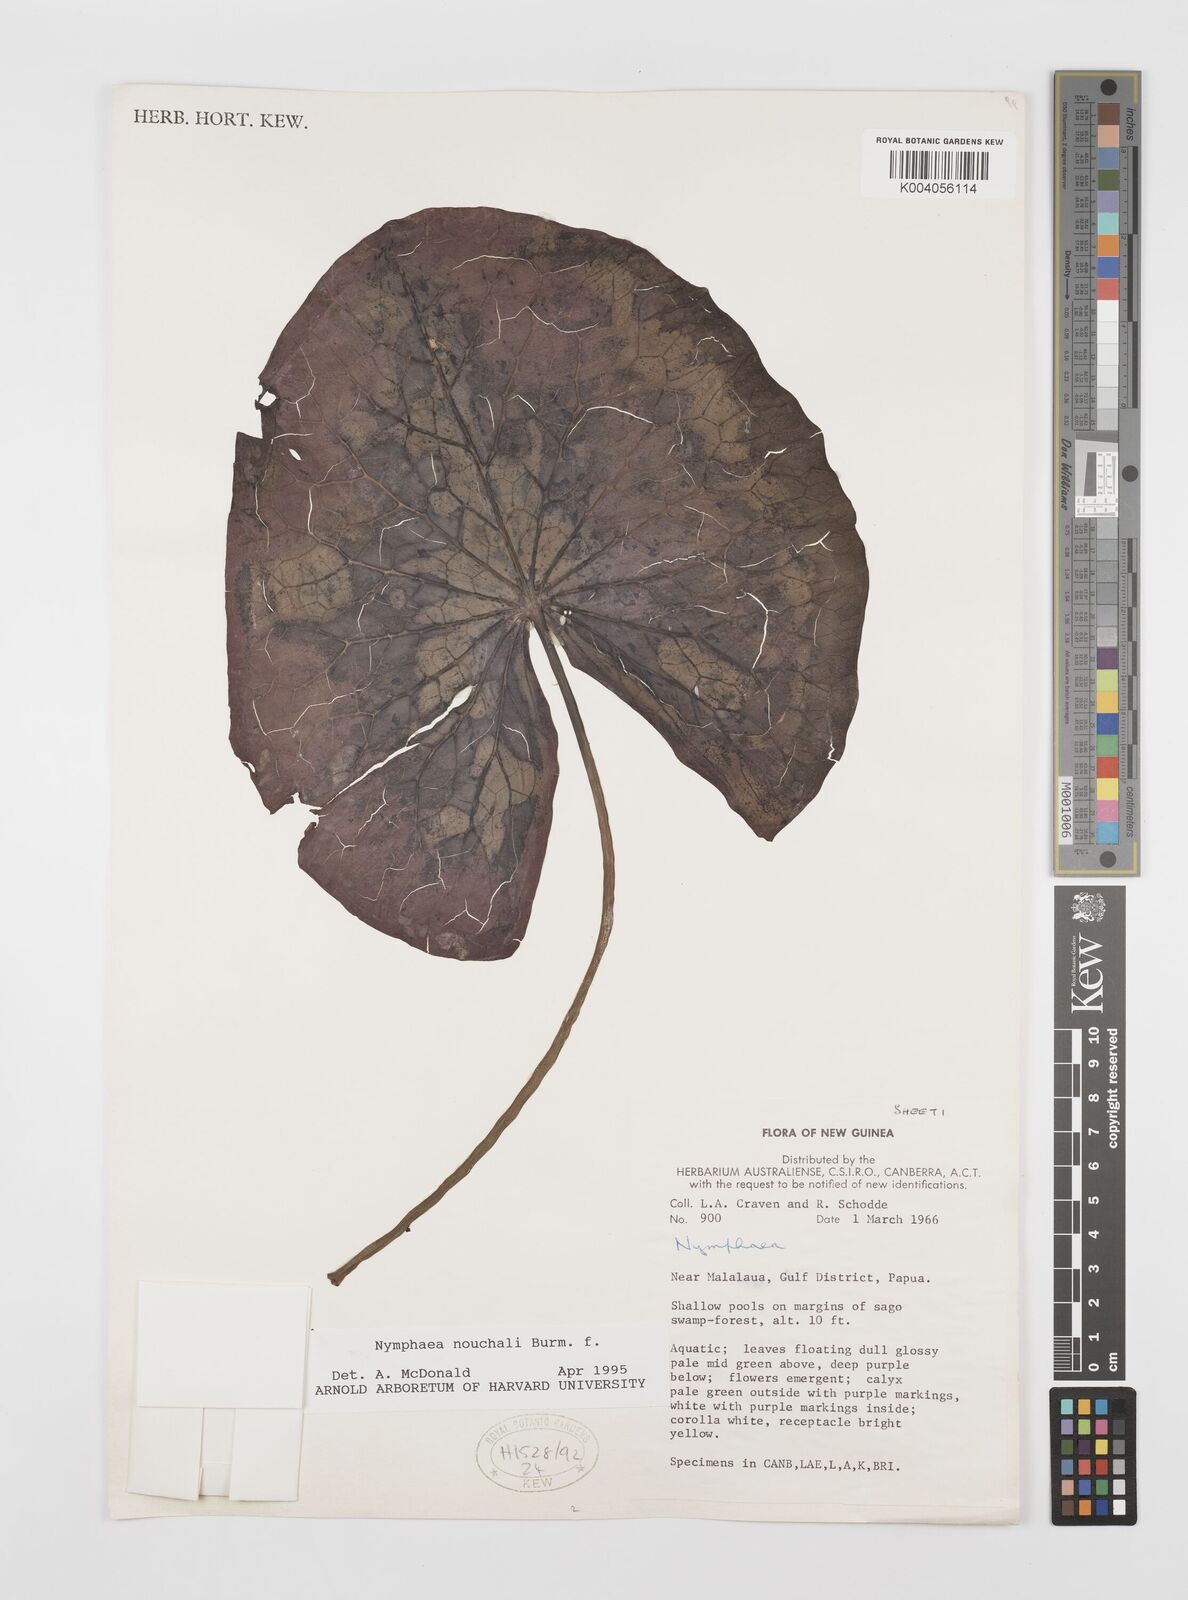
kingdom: Plantae
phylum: Tracheophyta
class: Magnoliopsida
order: Nymphaeales
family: Nymphaeaceae
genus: Nymphaea
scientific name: Nymphaea nouchali
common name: Blue lotus
